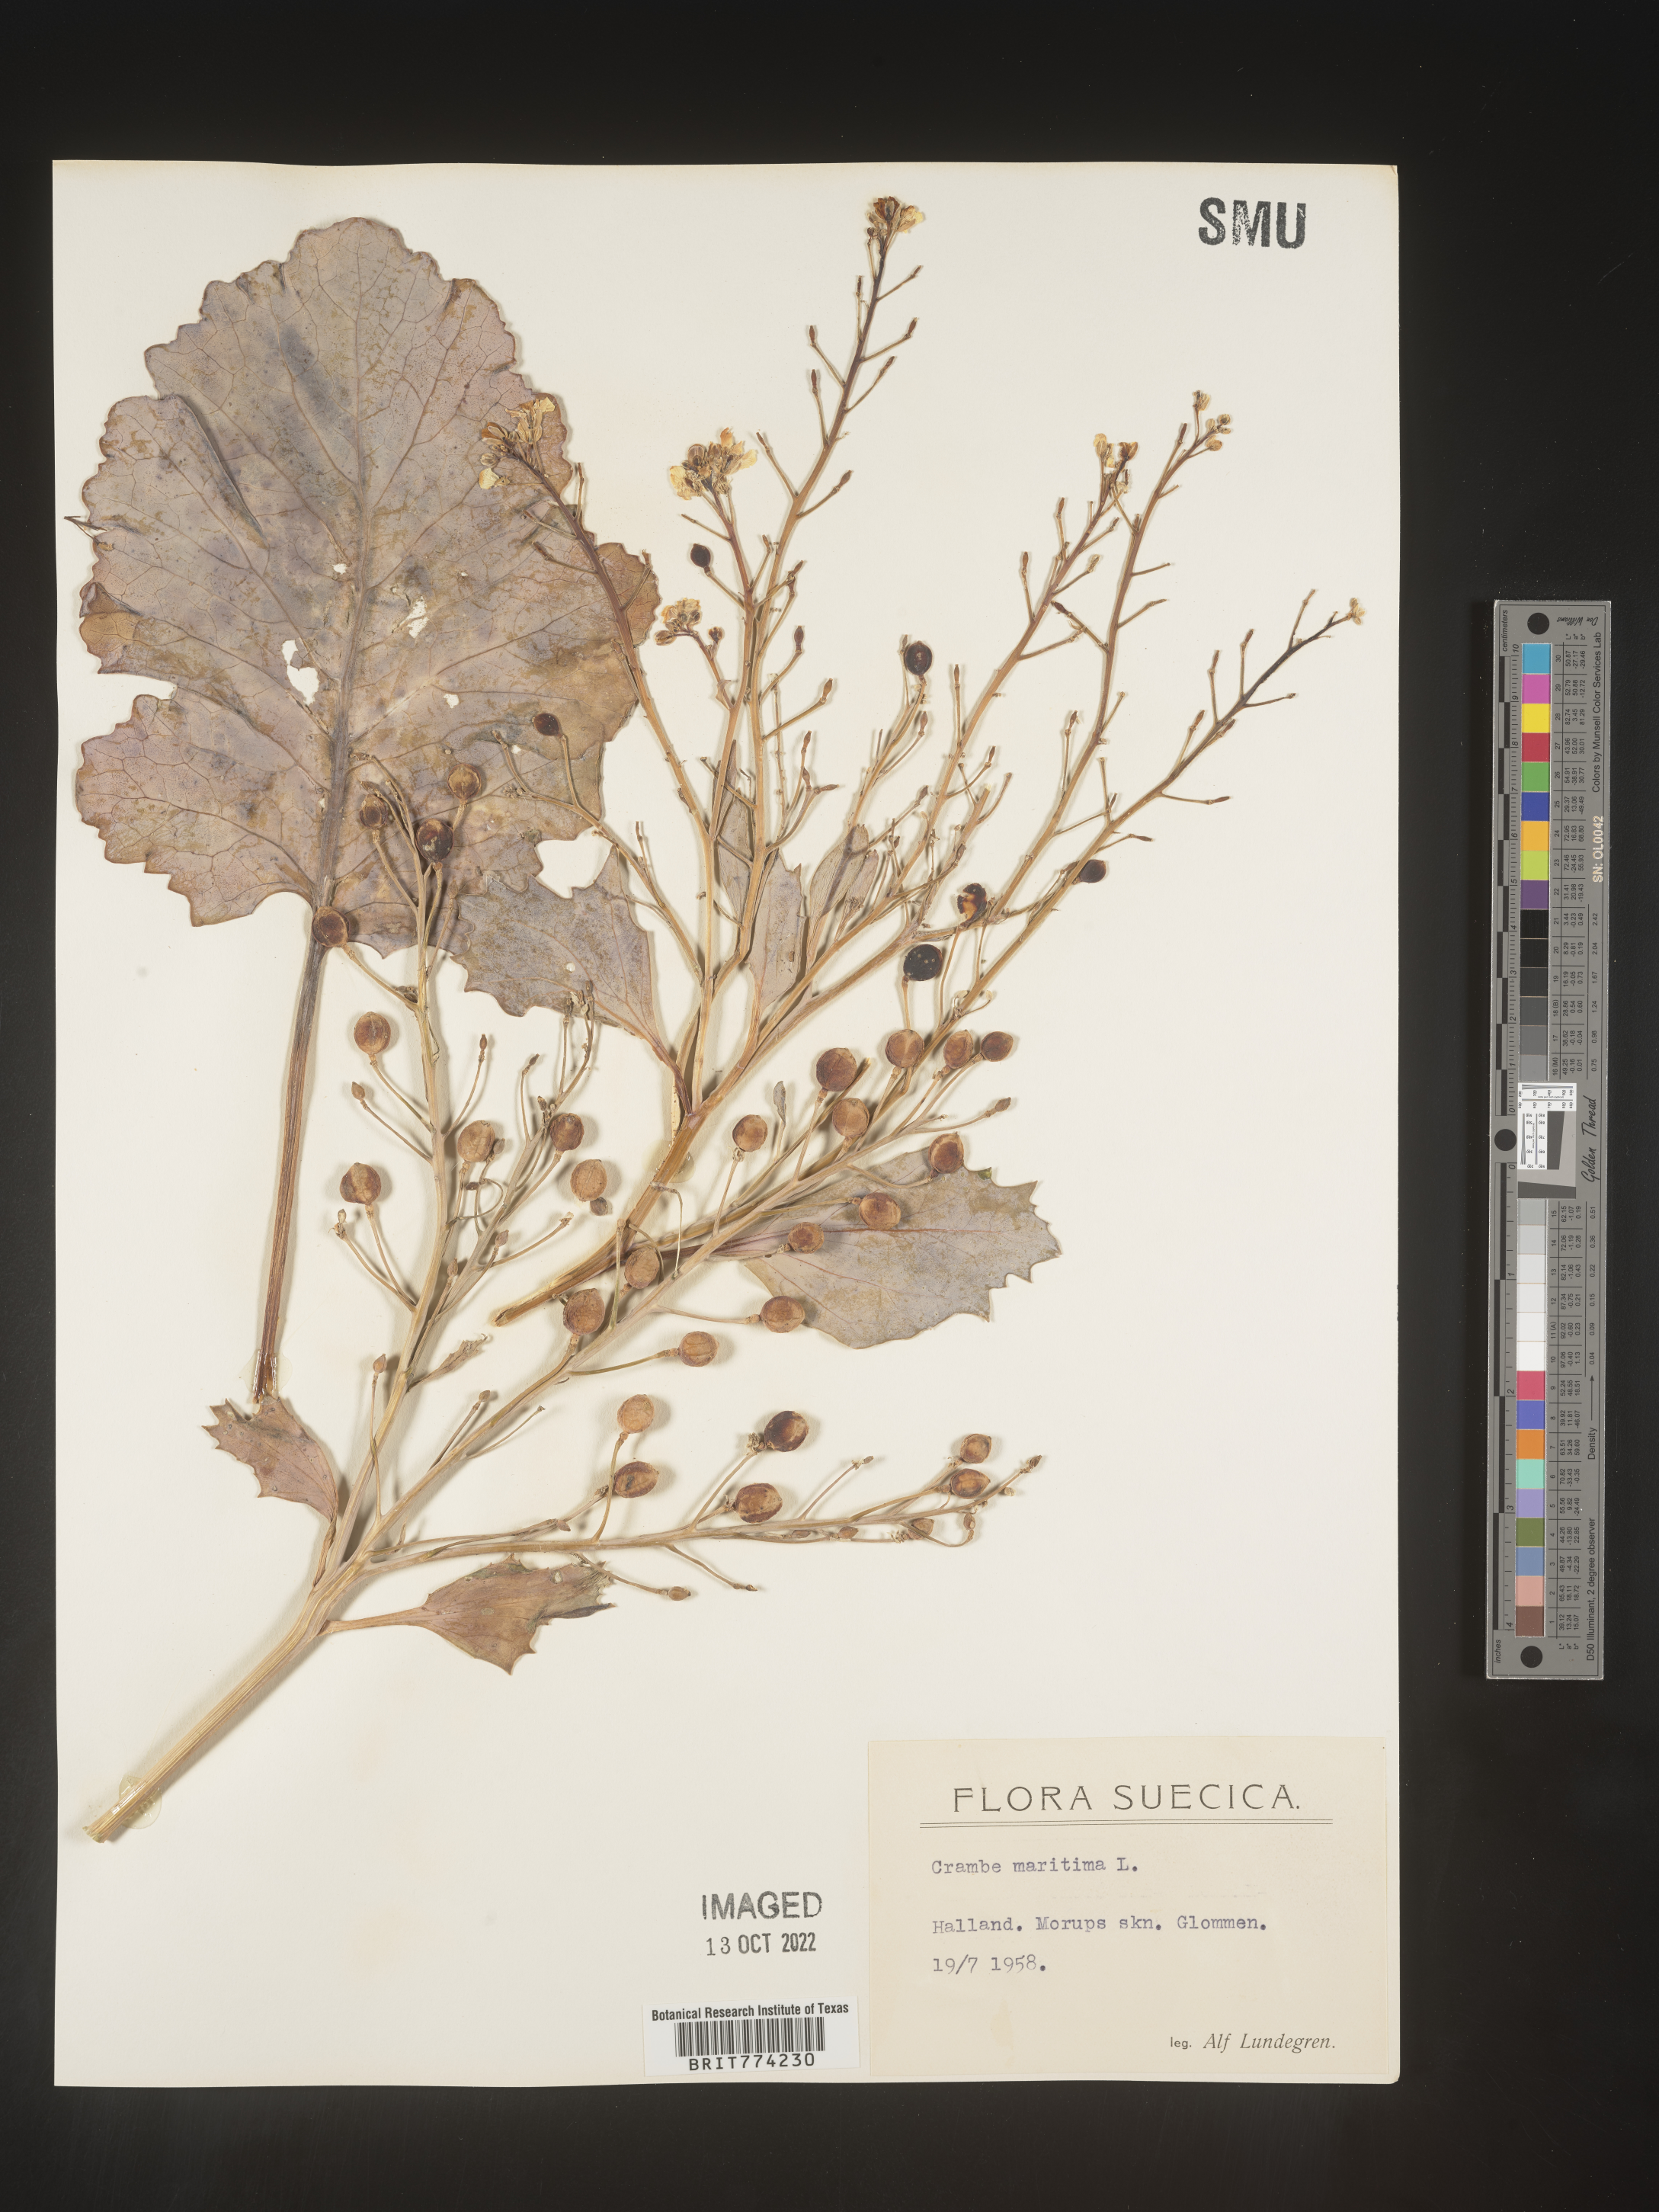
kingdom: Plantae
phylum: Tracheophyta
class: Magnoliopsida
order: Brassicales
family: Brassicaceae
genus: Crambe
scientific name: Crambe
